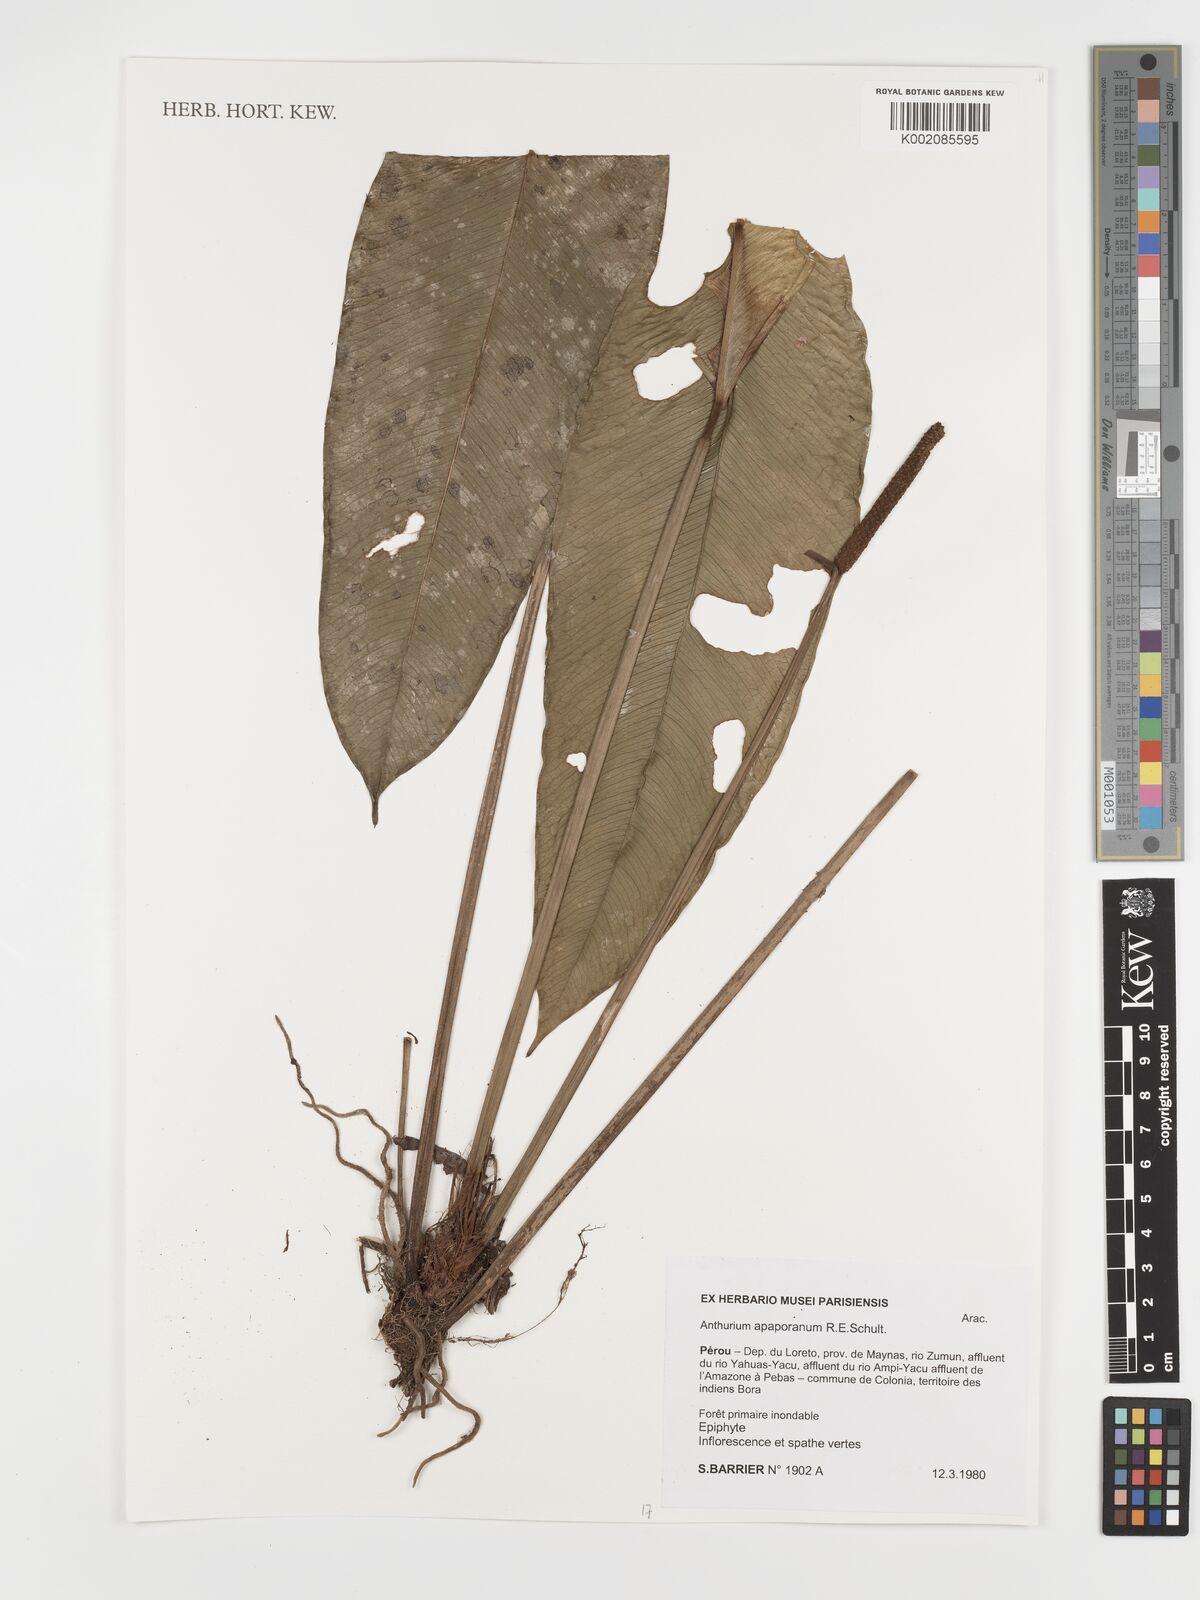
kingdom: Plantae
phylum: Tracheophyta
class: Liliopsida
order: Alismatales
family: Araceae
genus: Anthurium
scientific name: Anthurium apaporanum
